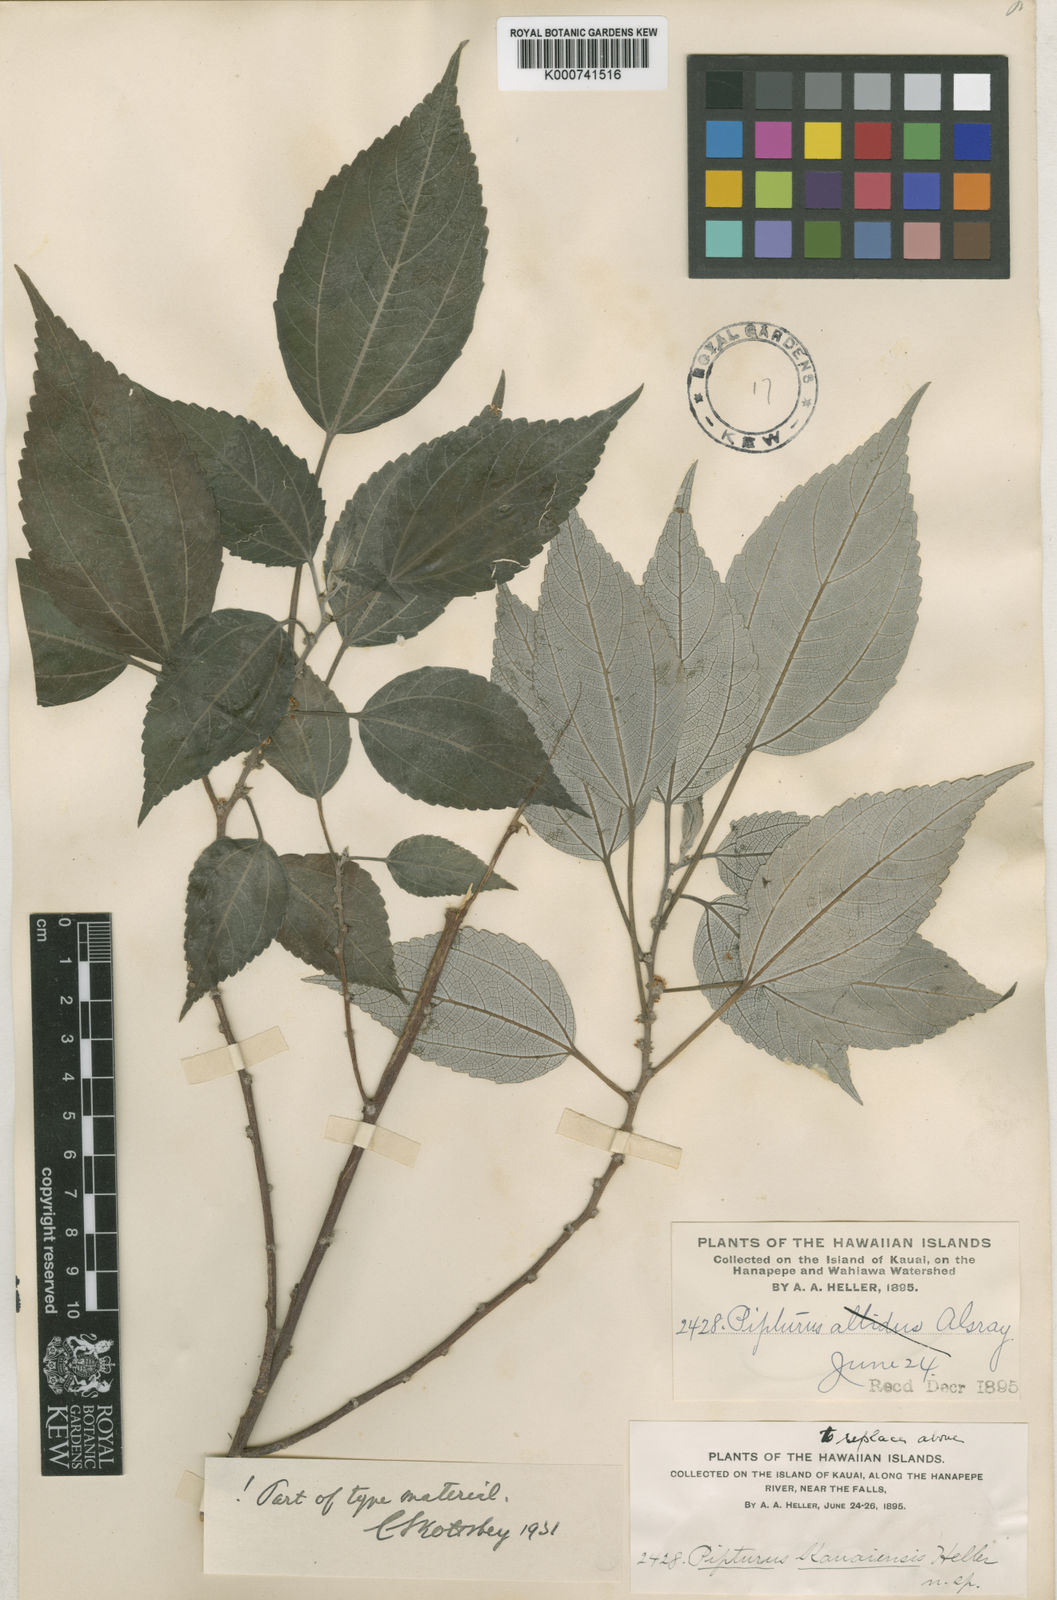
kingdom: Plantae
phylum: Tracheophyta
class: Magnoliopsida
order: Rosales
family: Urticaceae
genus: Pipturus
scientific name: Pipturus kauaiensis
